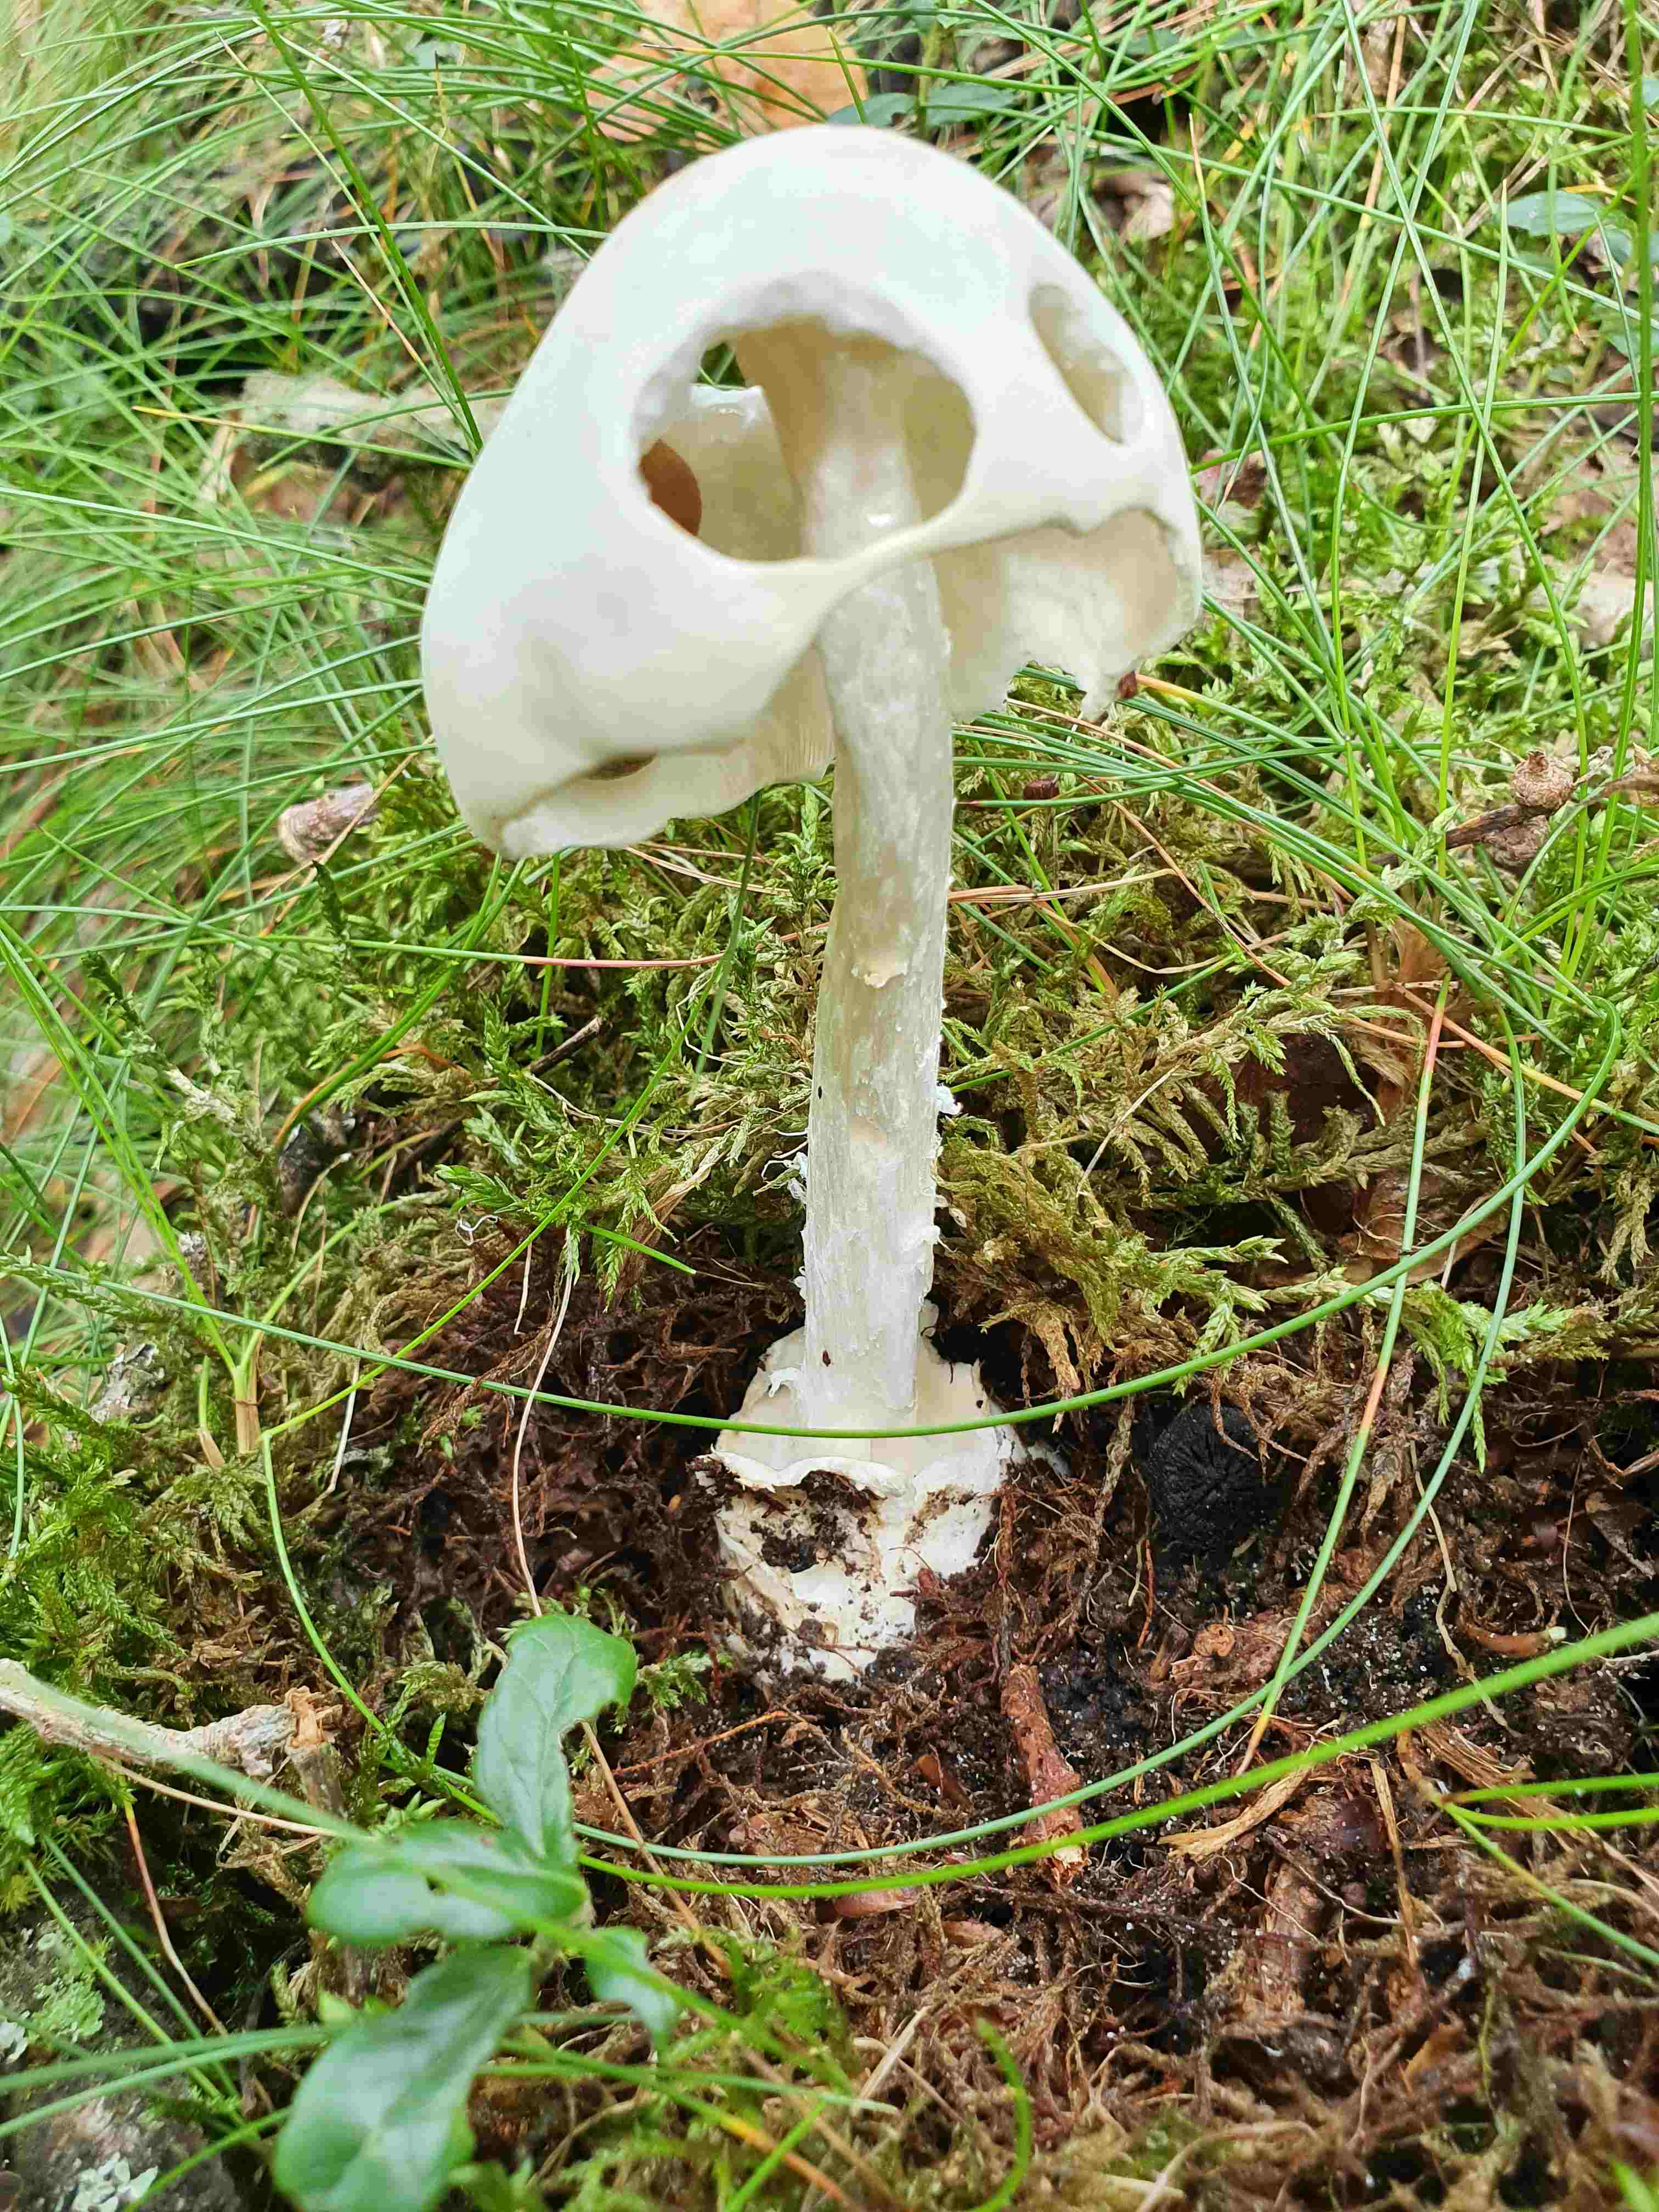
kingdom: Fungi
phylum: Basidiomycota
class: Agaricomycetes
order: Agaricales
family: Amanitaceae
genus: Amanita
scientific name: Amanita virosa
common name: snehvid fluesvamp
